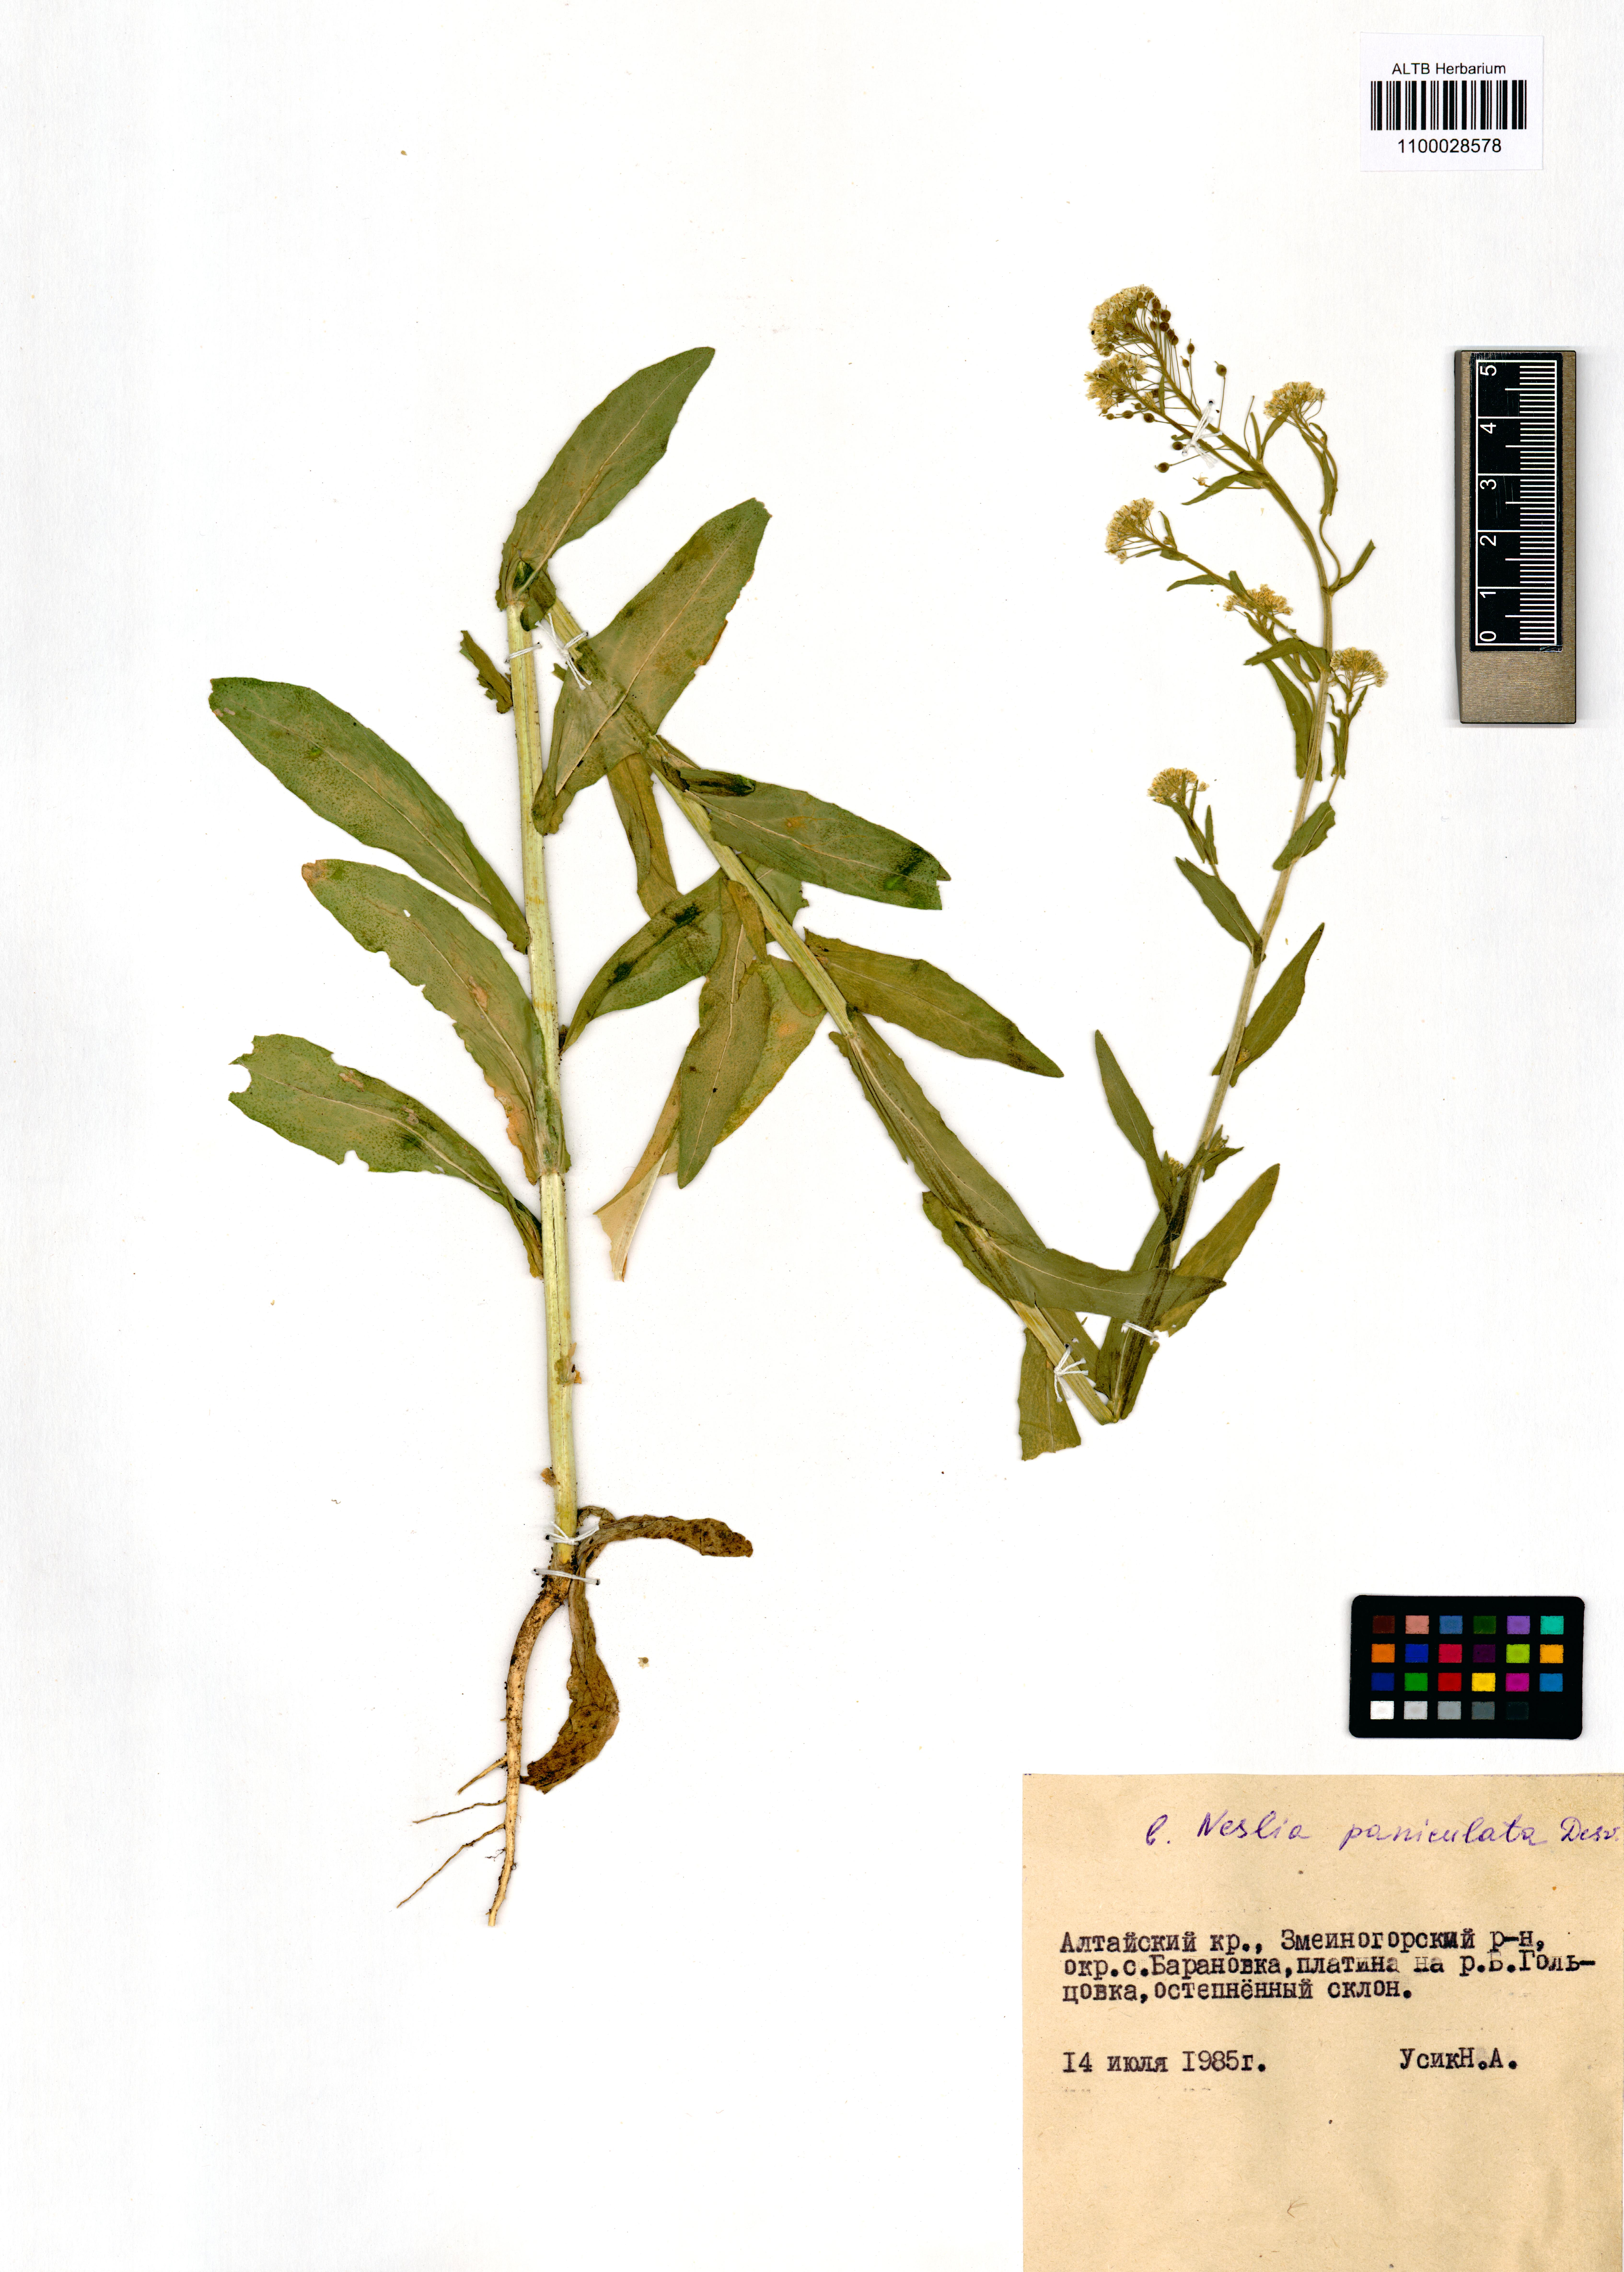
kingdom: Plantae
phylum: Tracheophyta
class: Magnoliopsida
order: Brassicales
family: Brassicaceae
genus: Neslia
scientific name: Neslia paniculata
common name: Ball mustard
